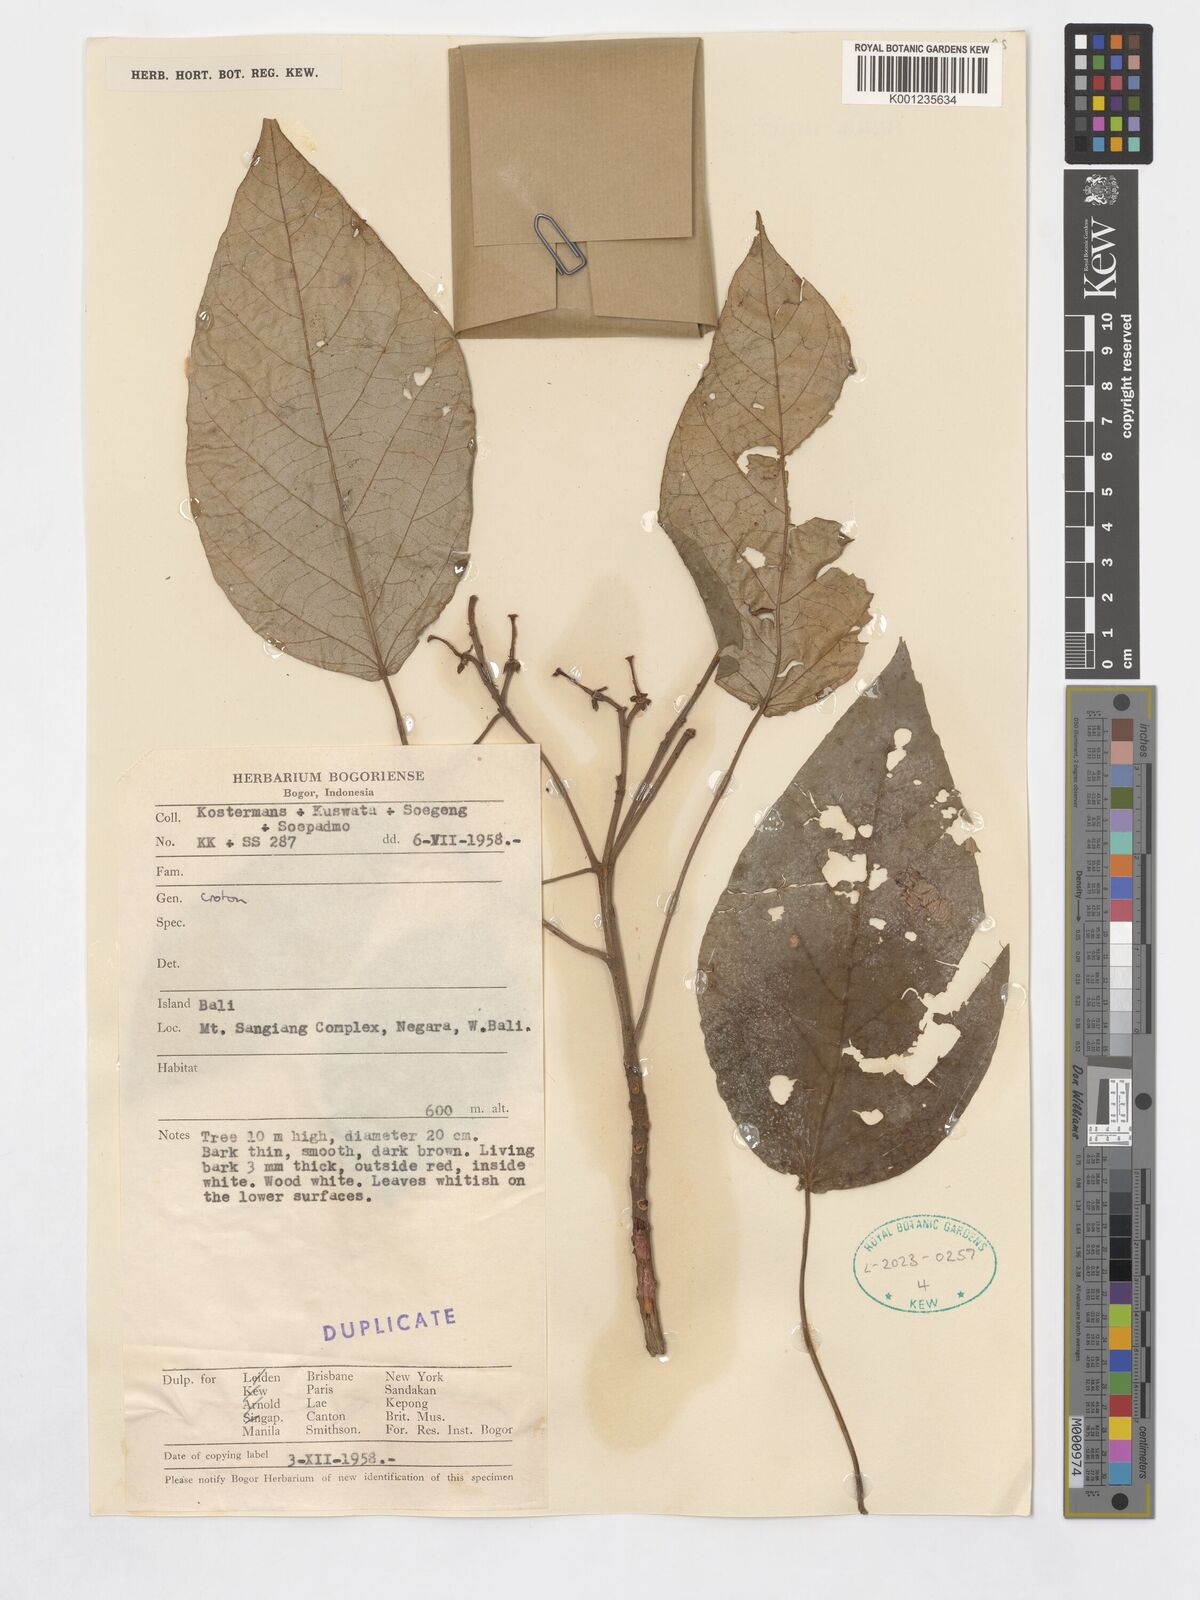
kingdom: Plantae
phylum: Tracheophyta
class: Magnoliopsida
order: Malpighiales
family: Euphorbiaceae
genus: Croton
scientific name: Croton
